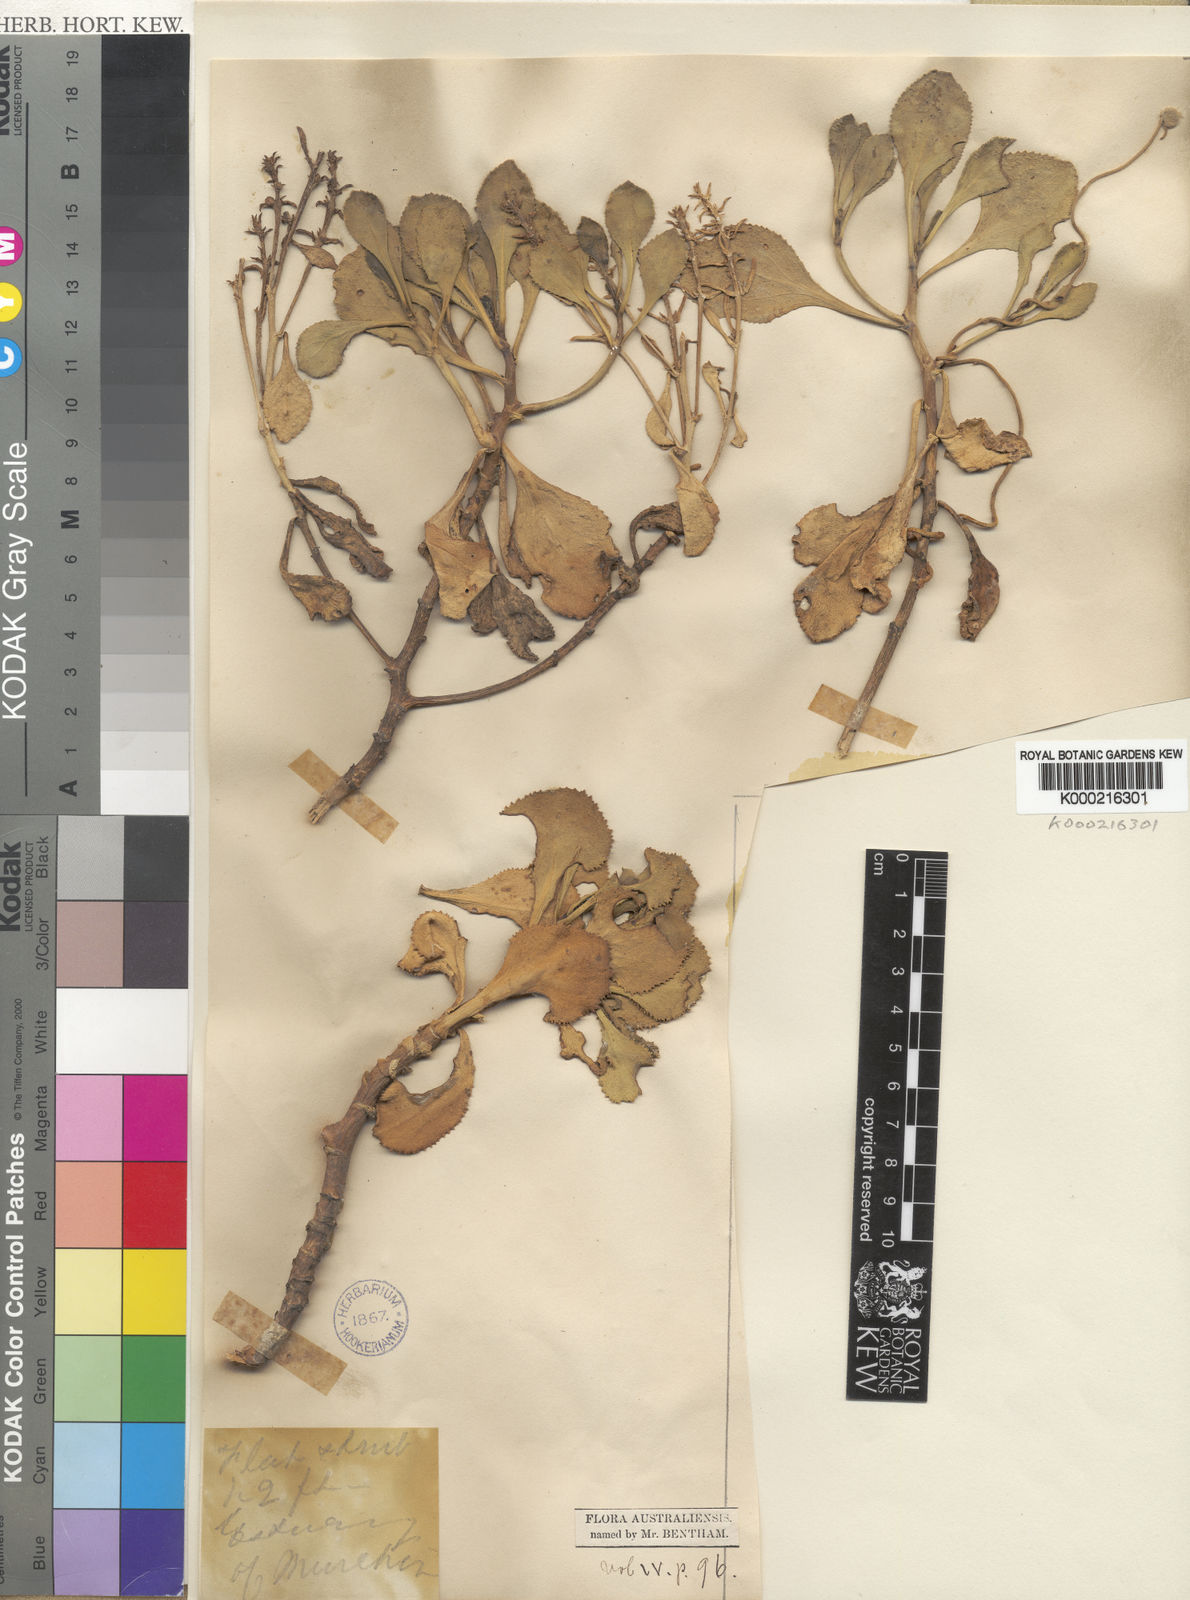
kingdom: Plantae
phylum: Tracheophyta
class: Magnoliopsida
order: Asterales
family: Goodeniaceae
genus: Scaevola
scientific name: Scaevola crassifolia
